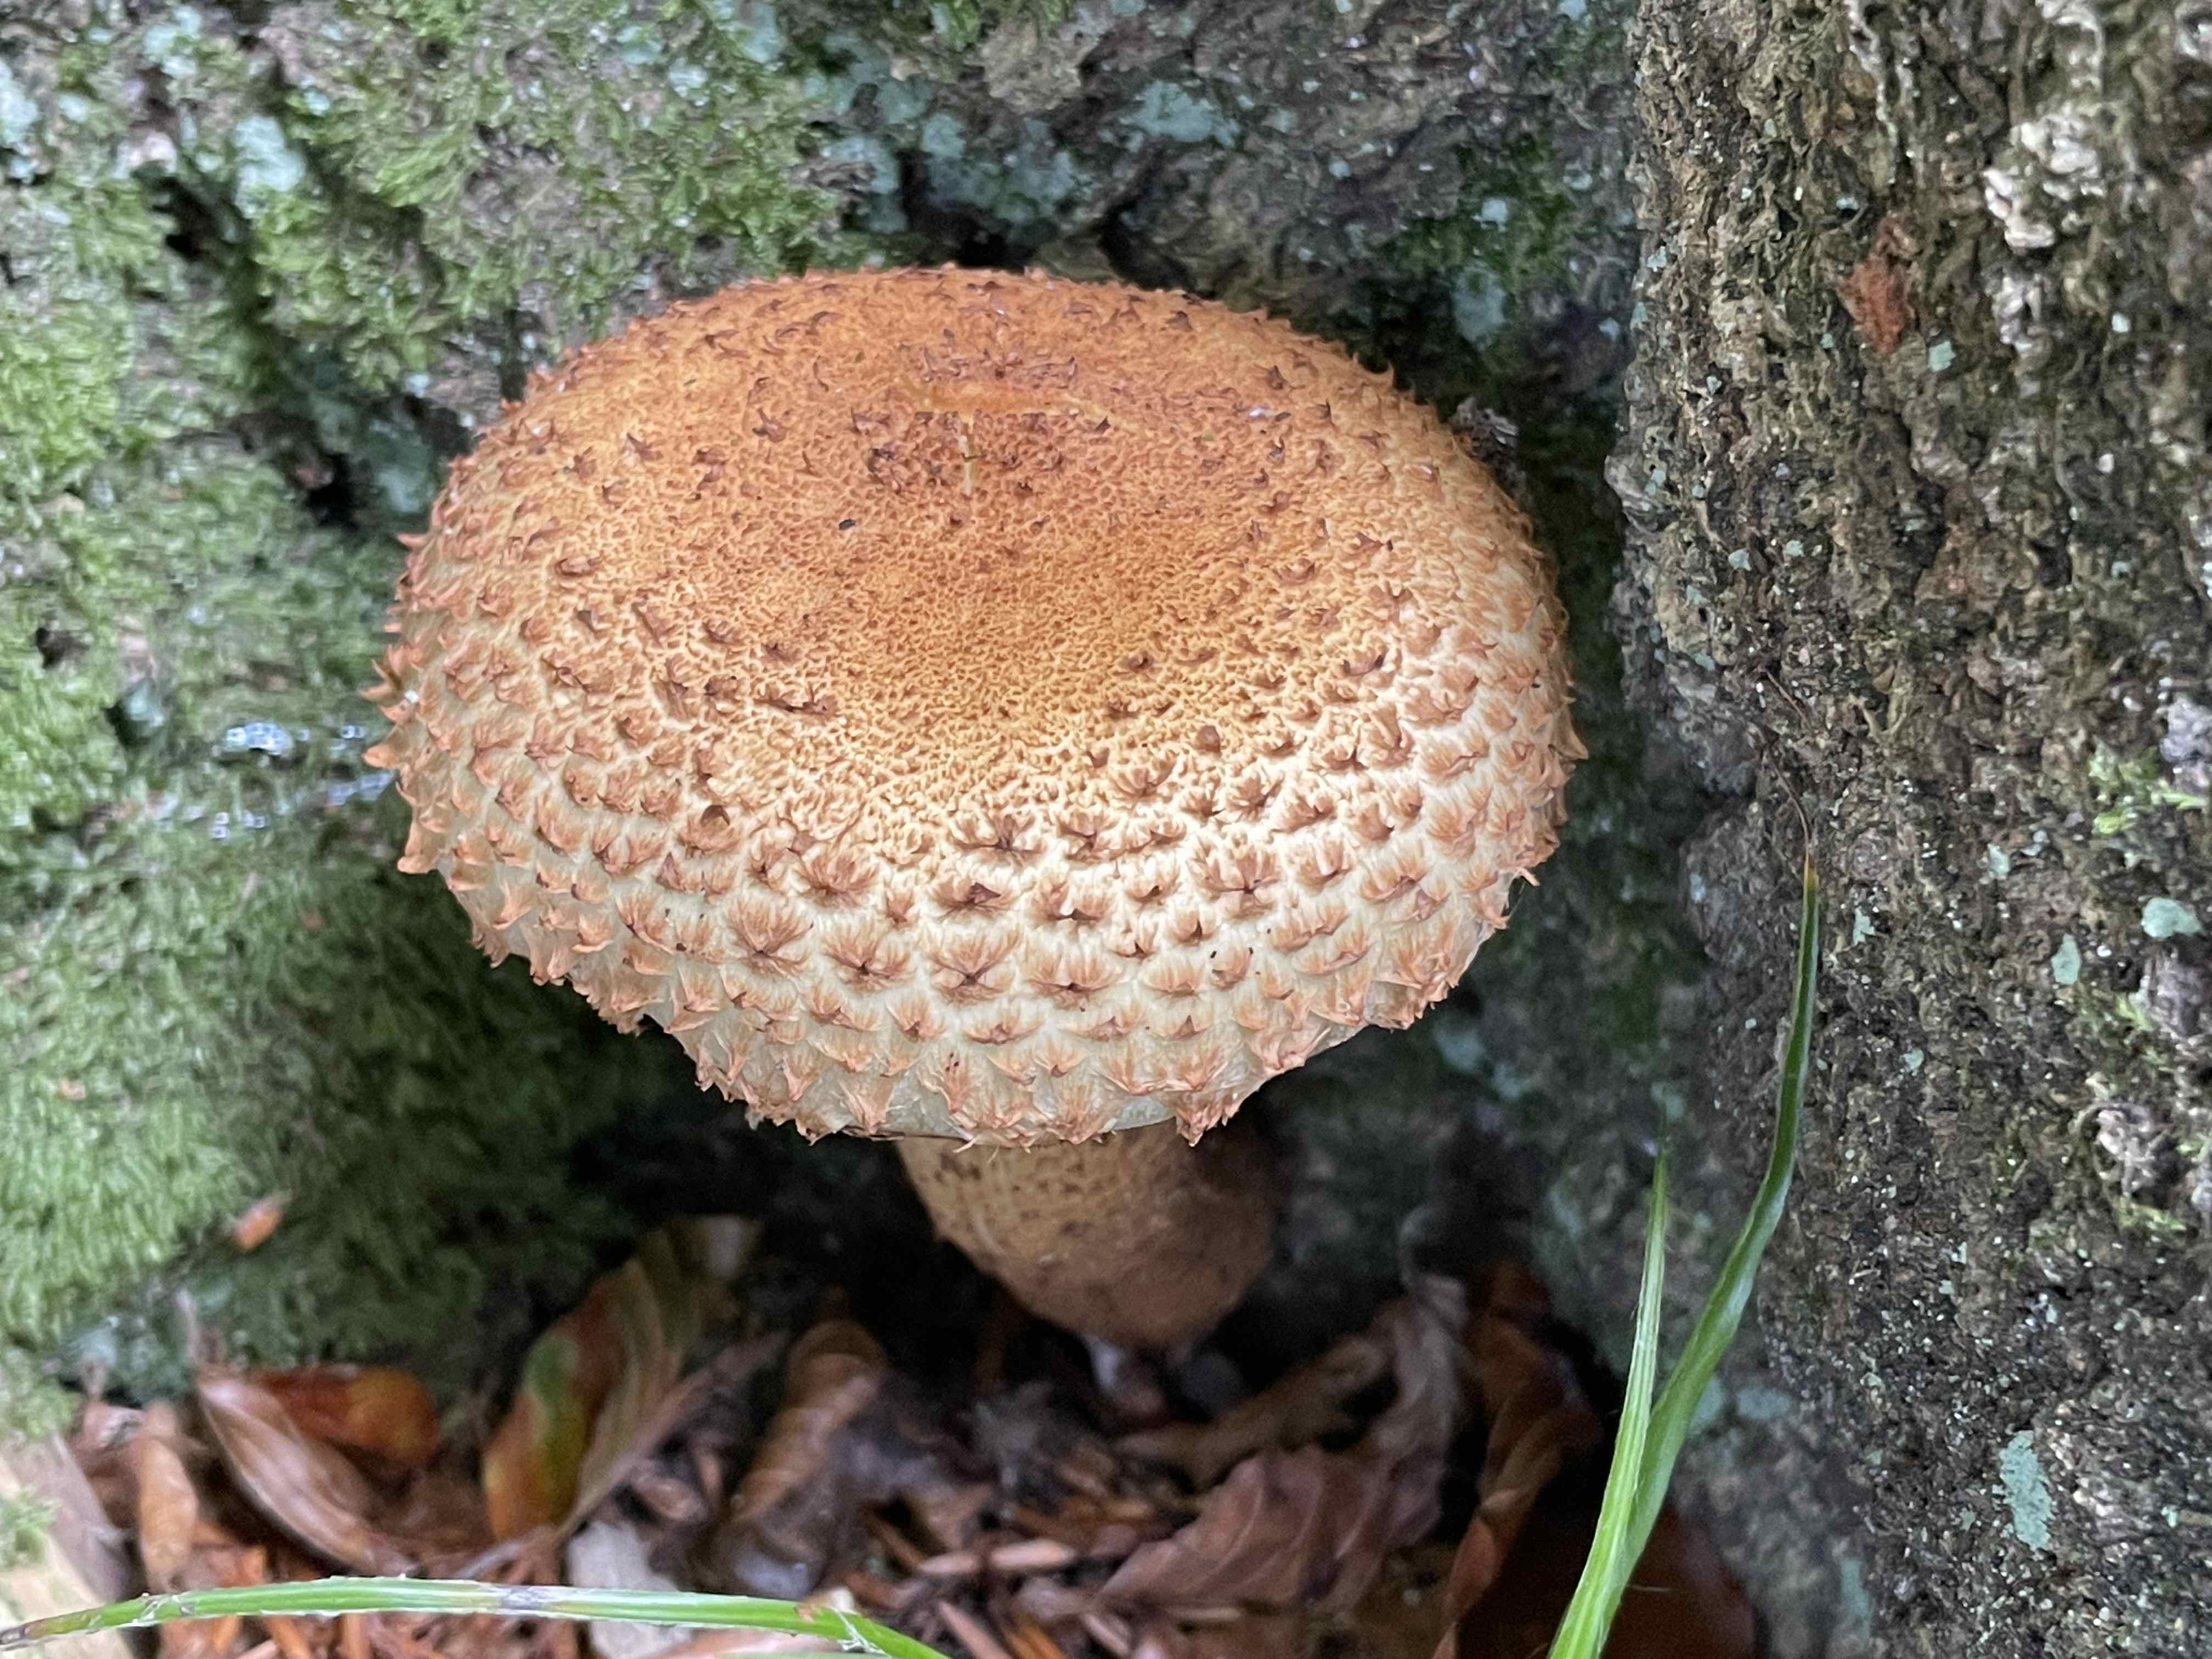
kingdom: Fungi
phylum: Basidiomycota
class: Agaricomycetes
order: Agaricales
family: Strophariaceae
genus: Pholiota
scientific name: Pholiota squarrosa
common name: krumskællet skælhat
